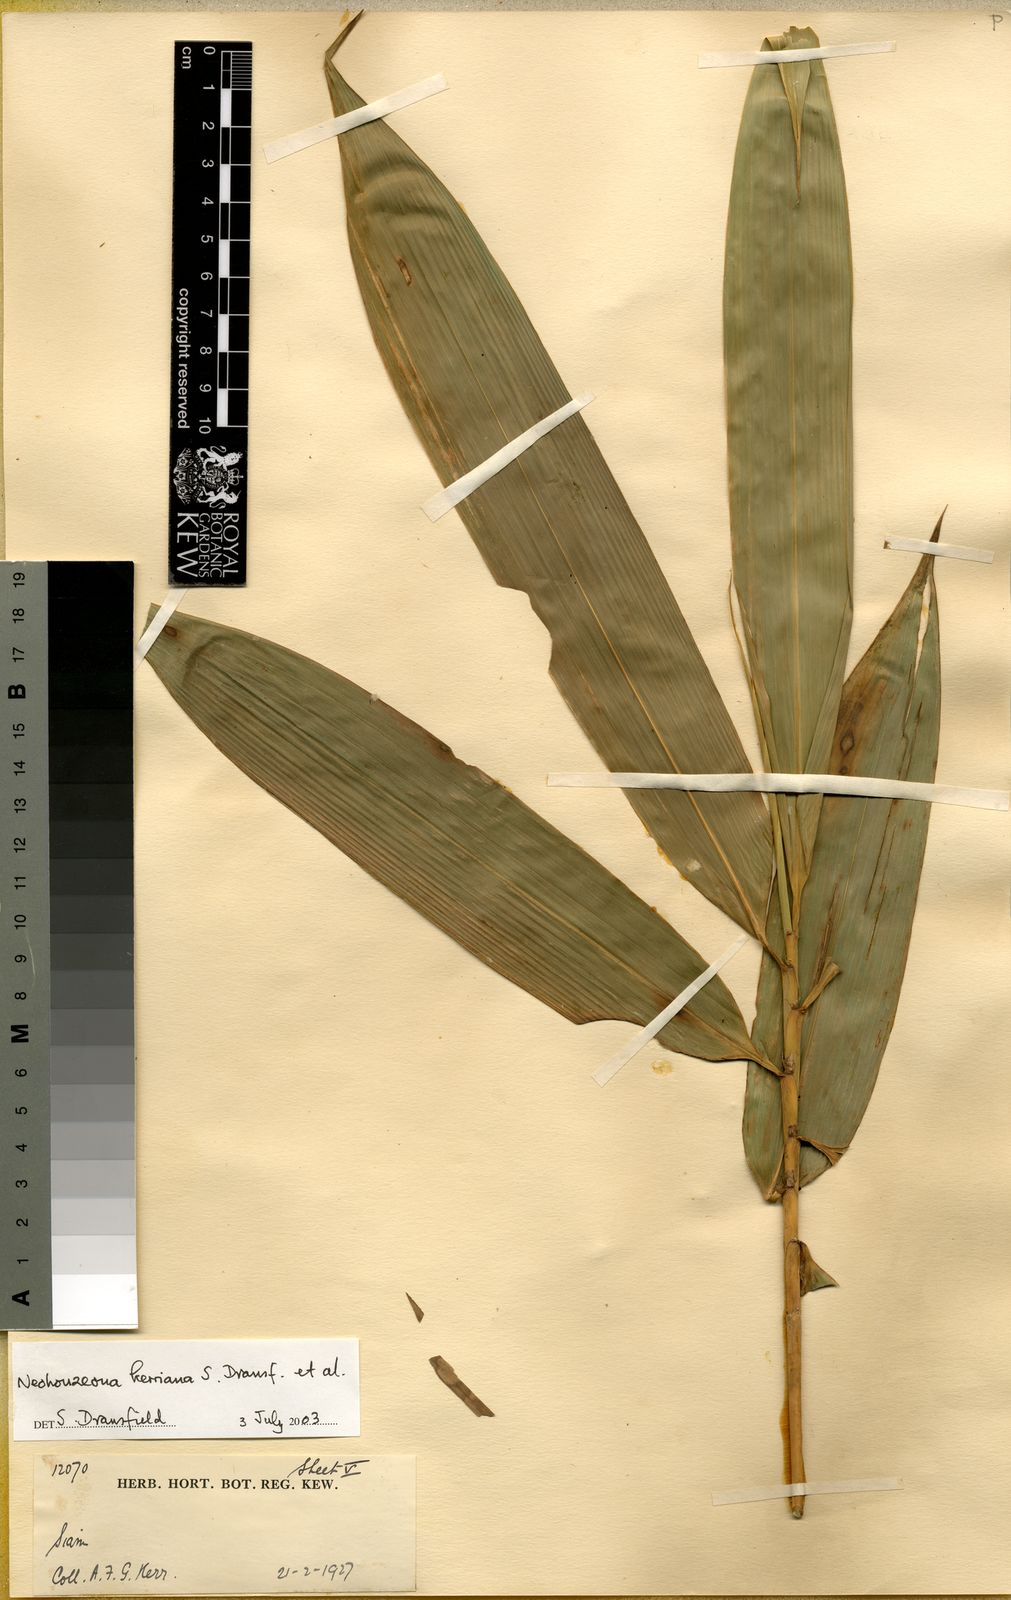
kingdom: Plantae
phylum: Tracheophyta
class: Liliopsida
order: Poales
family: Poaceae
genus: Schizostachyum
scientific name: Schizostachyum
